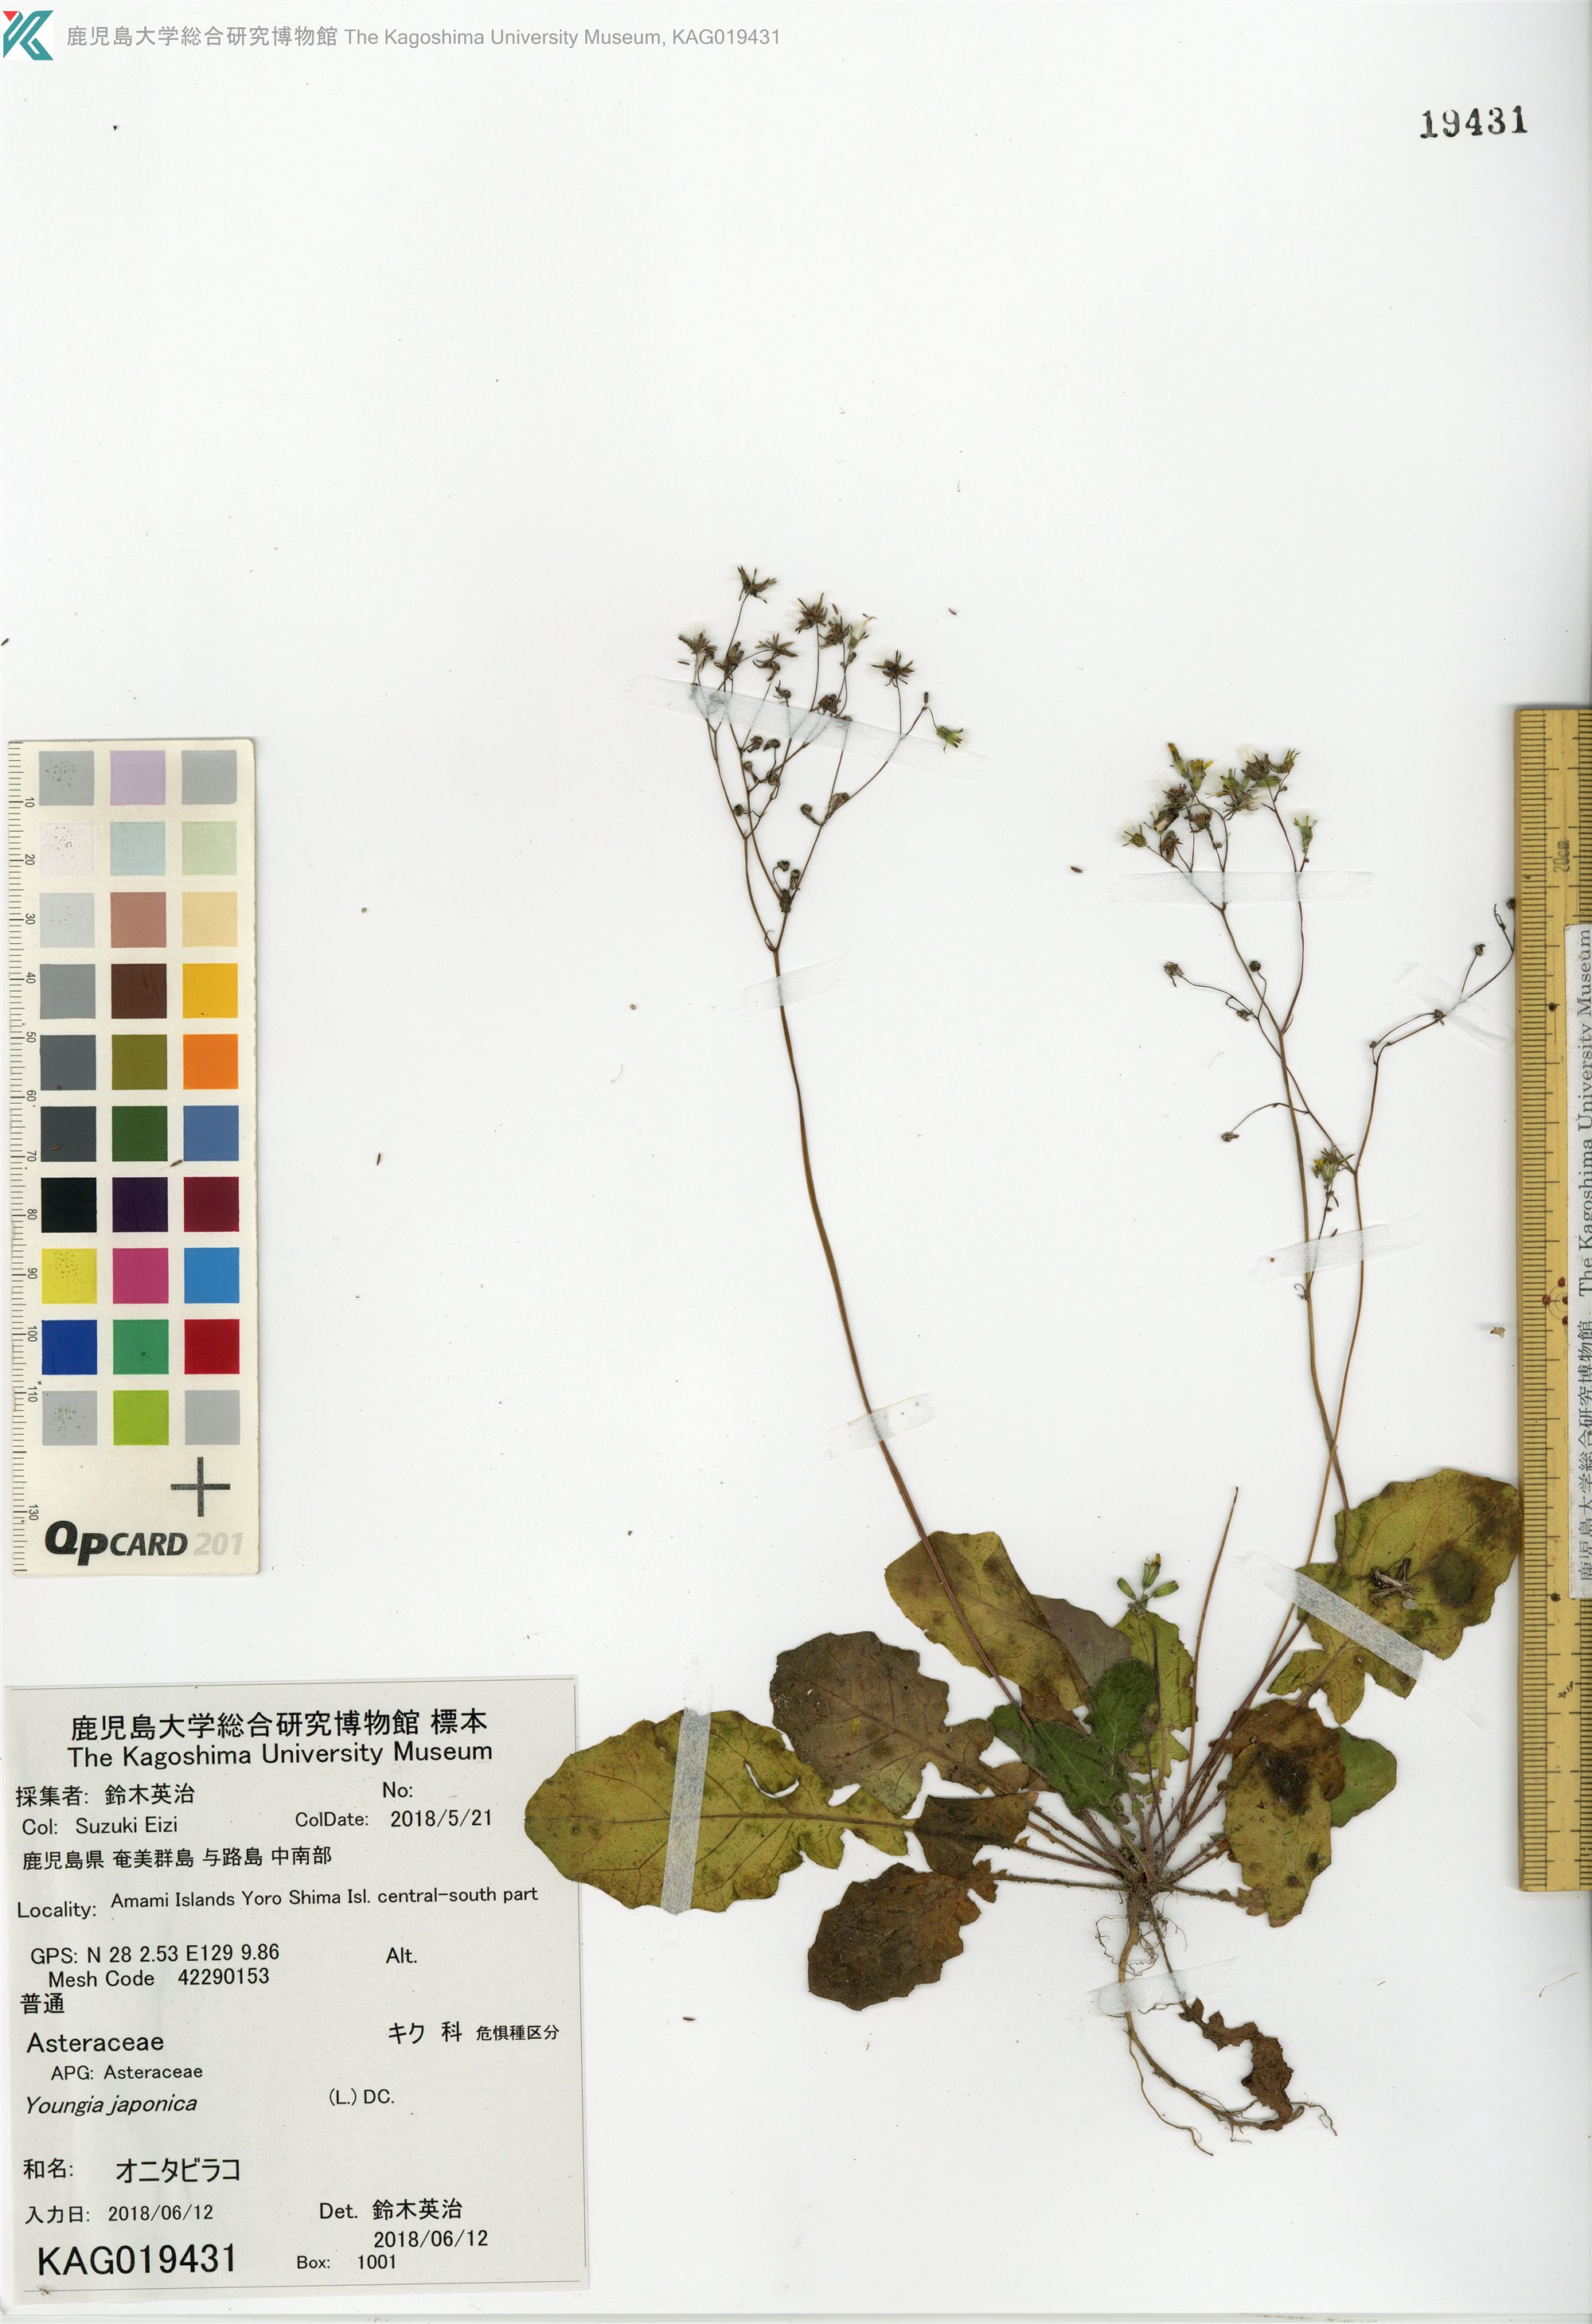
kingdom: Plantae
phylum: Tracheophyta
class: Magnoliopsida
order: Asterales
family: Asteraceae
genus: Youngia
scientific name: Youngia japonica
